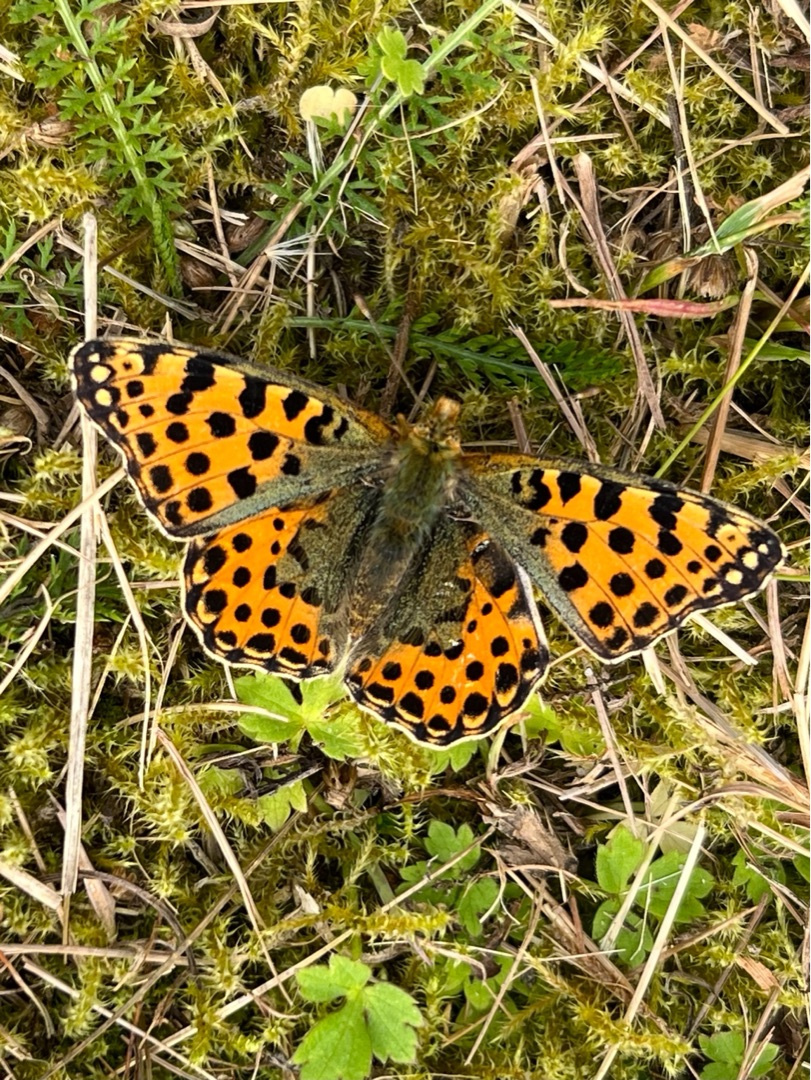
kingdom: Animalia
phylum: Arthropoda
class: Insecta
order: Lepidoptera
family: Nymphalidae
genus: Issoria
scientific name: Issoria lathonia
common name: Storplettet perlemorsommerfugl
